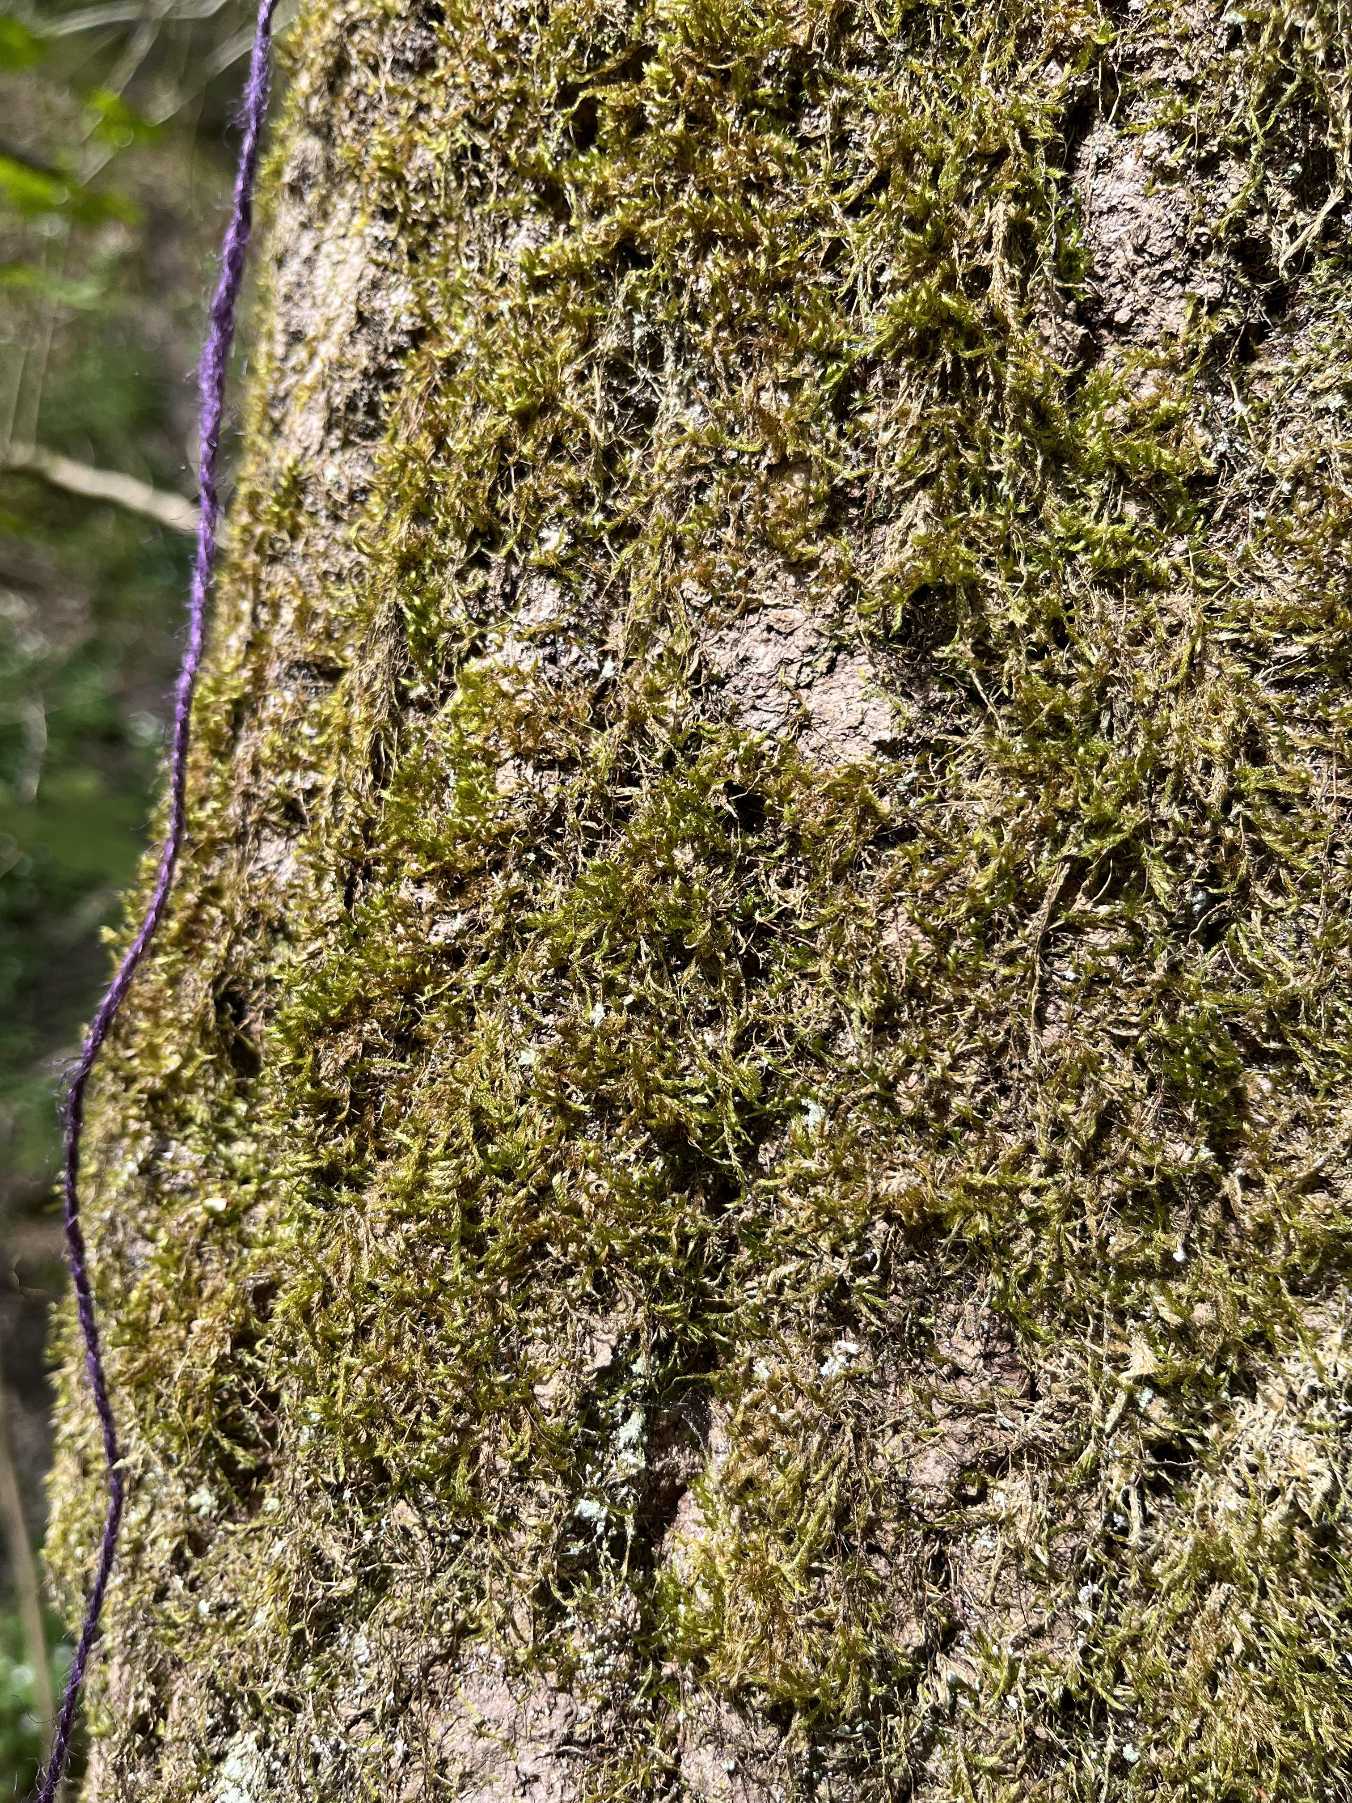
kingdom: Plantae
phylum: Bryophyta
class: Bryopsida
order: Hypnales
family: Hypnaceae
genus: Hypnum
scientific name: Hypnum
